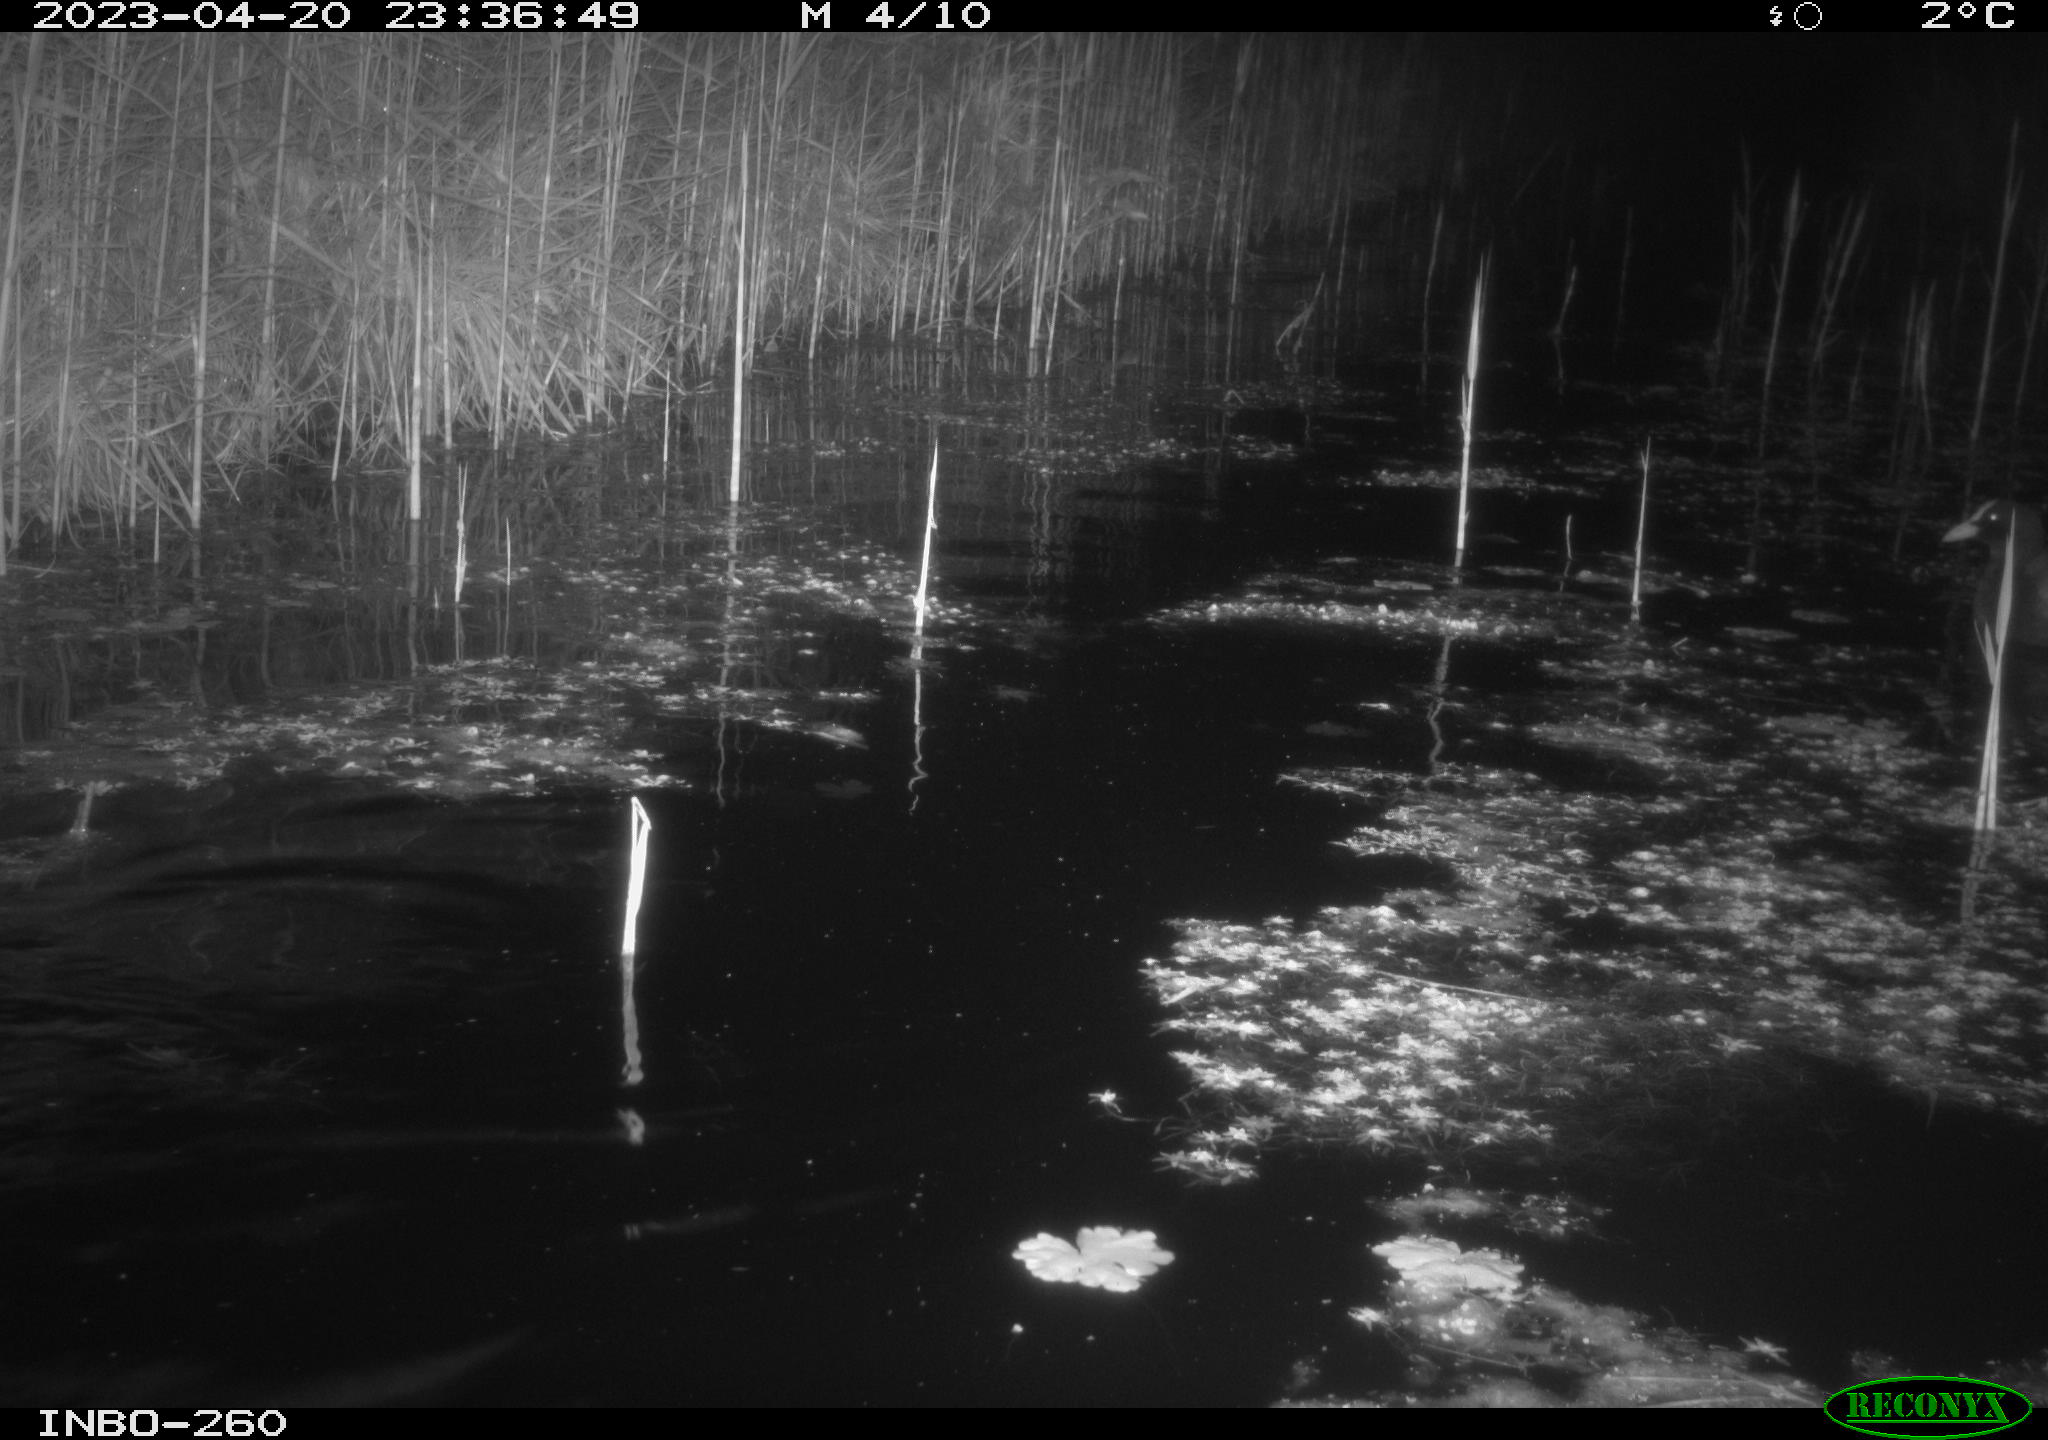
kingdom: Animalia
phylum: Chordata
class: Aves
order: Gruiformes
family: Rallidae
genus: Fulica
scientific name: Fulica atra
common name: Eurasian coot
